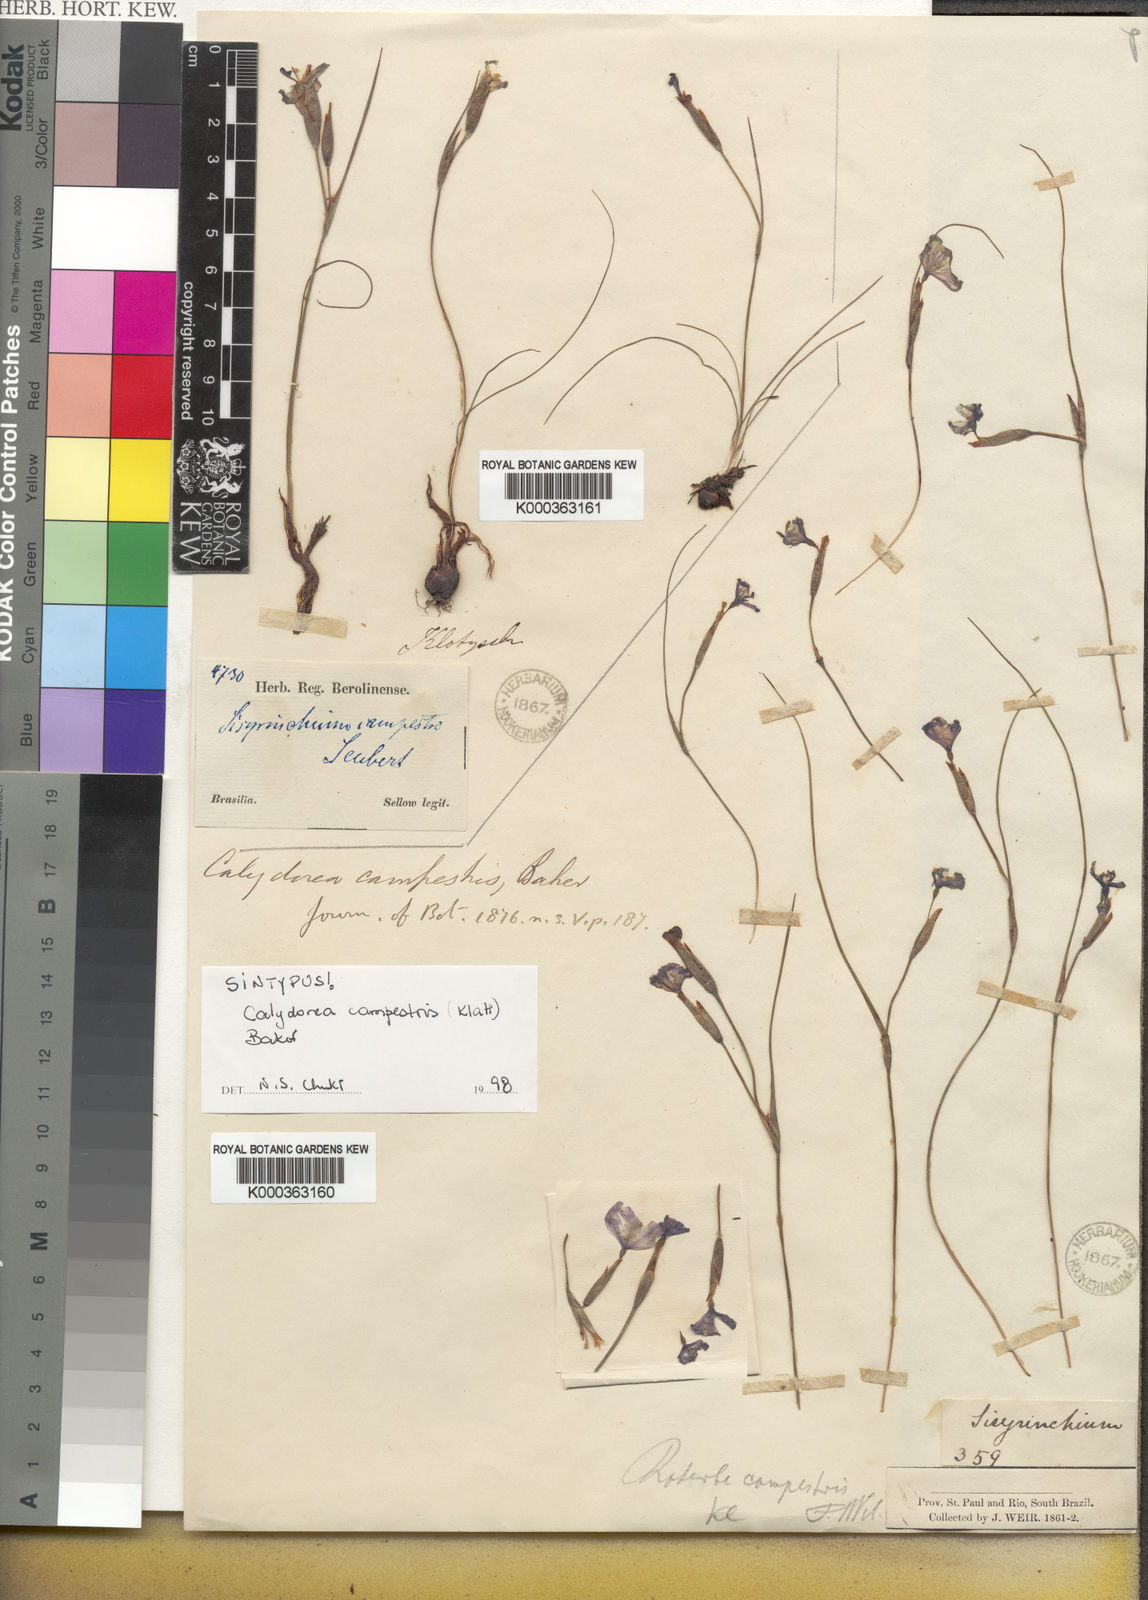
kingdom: Plantae
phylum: Tracheophyta
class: Liliopsida
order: Asparagales
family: Iridaceae
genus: Calydorea
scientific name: Calydorea campestris
